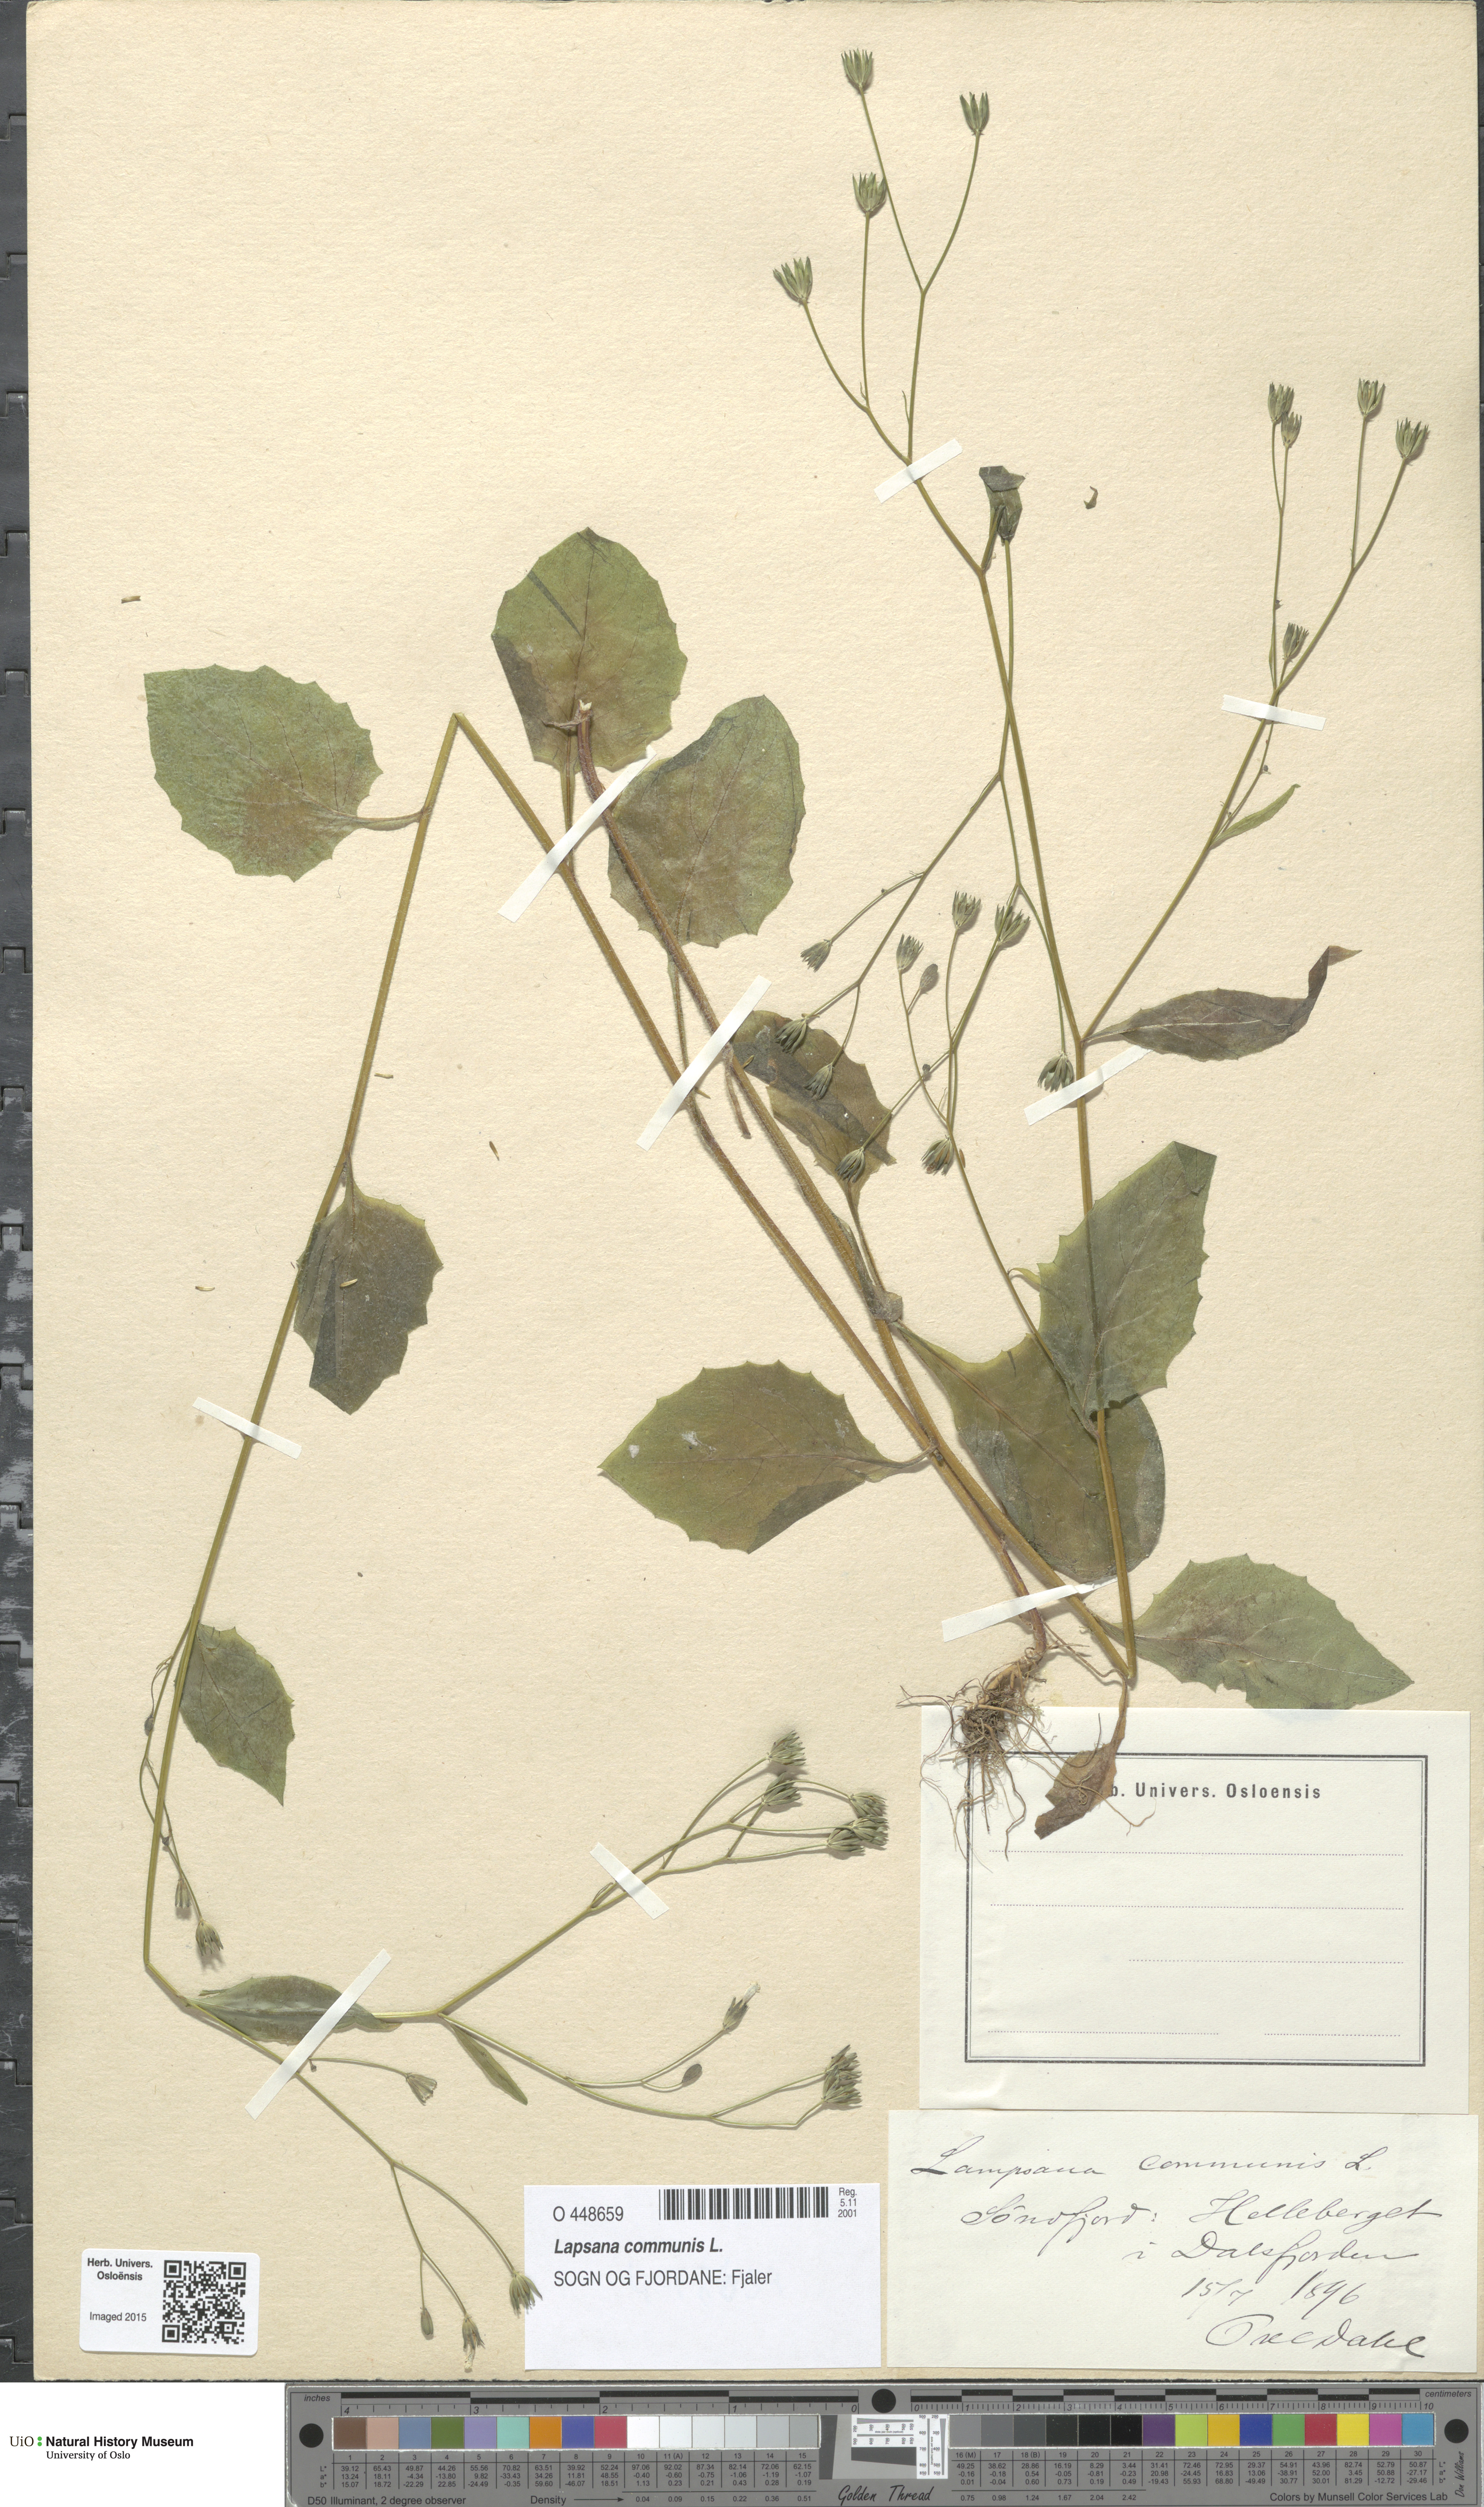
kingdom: Plantae
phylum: Tracheophyta
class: Magnoliopsida
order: Asterales
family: Asteraceae
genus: Lapsana
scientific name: Lapsana communis
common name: Nipplewort
